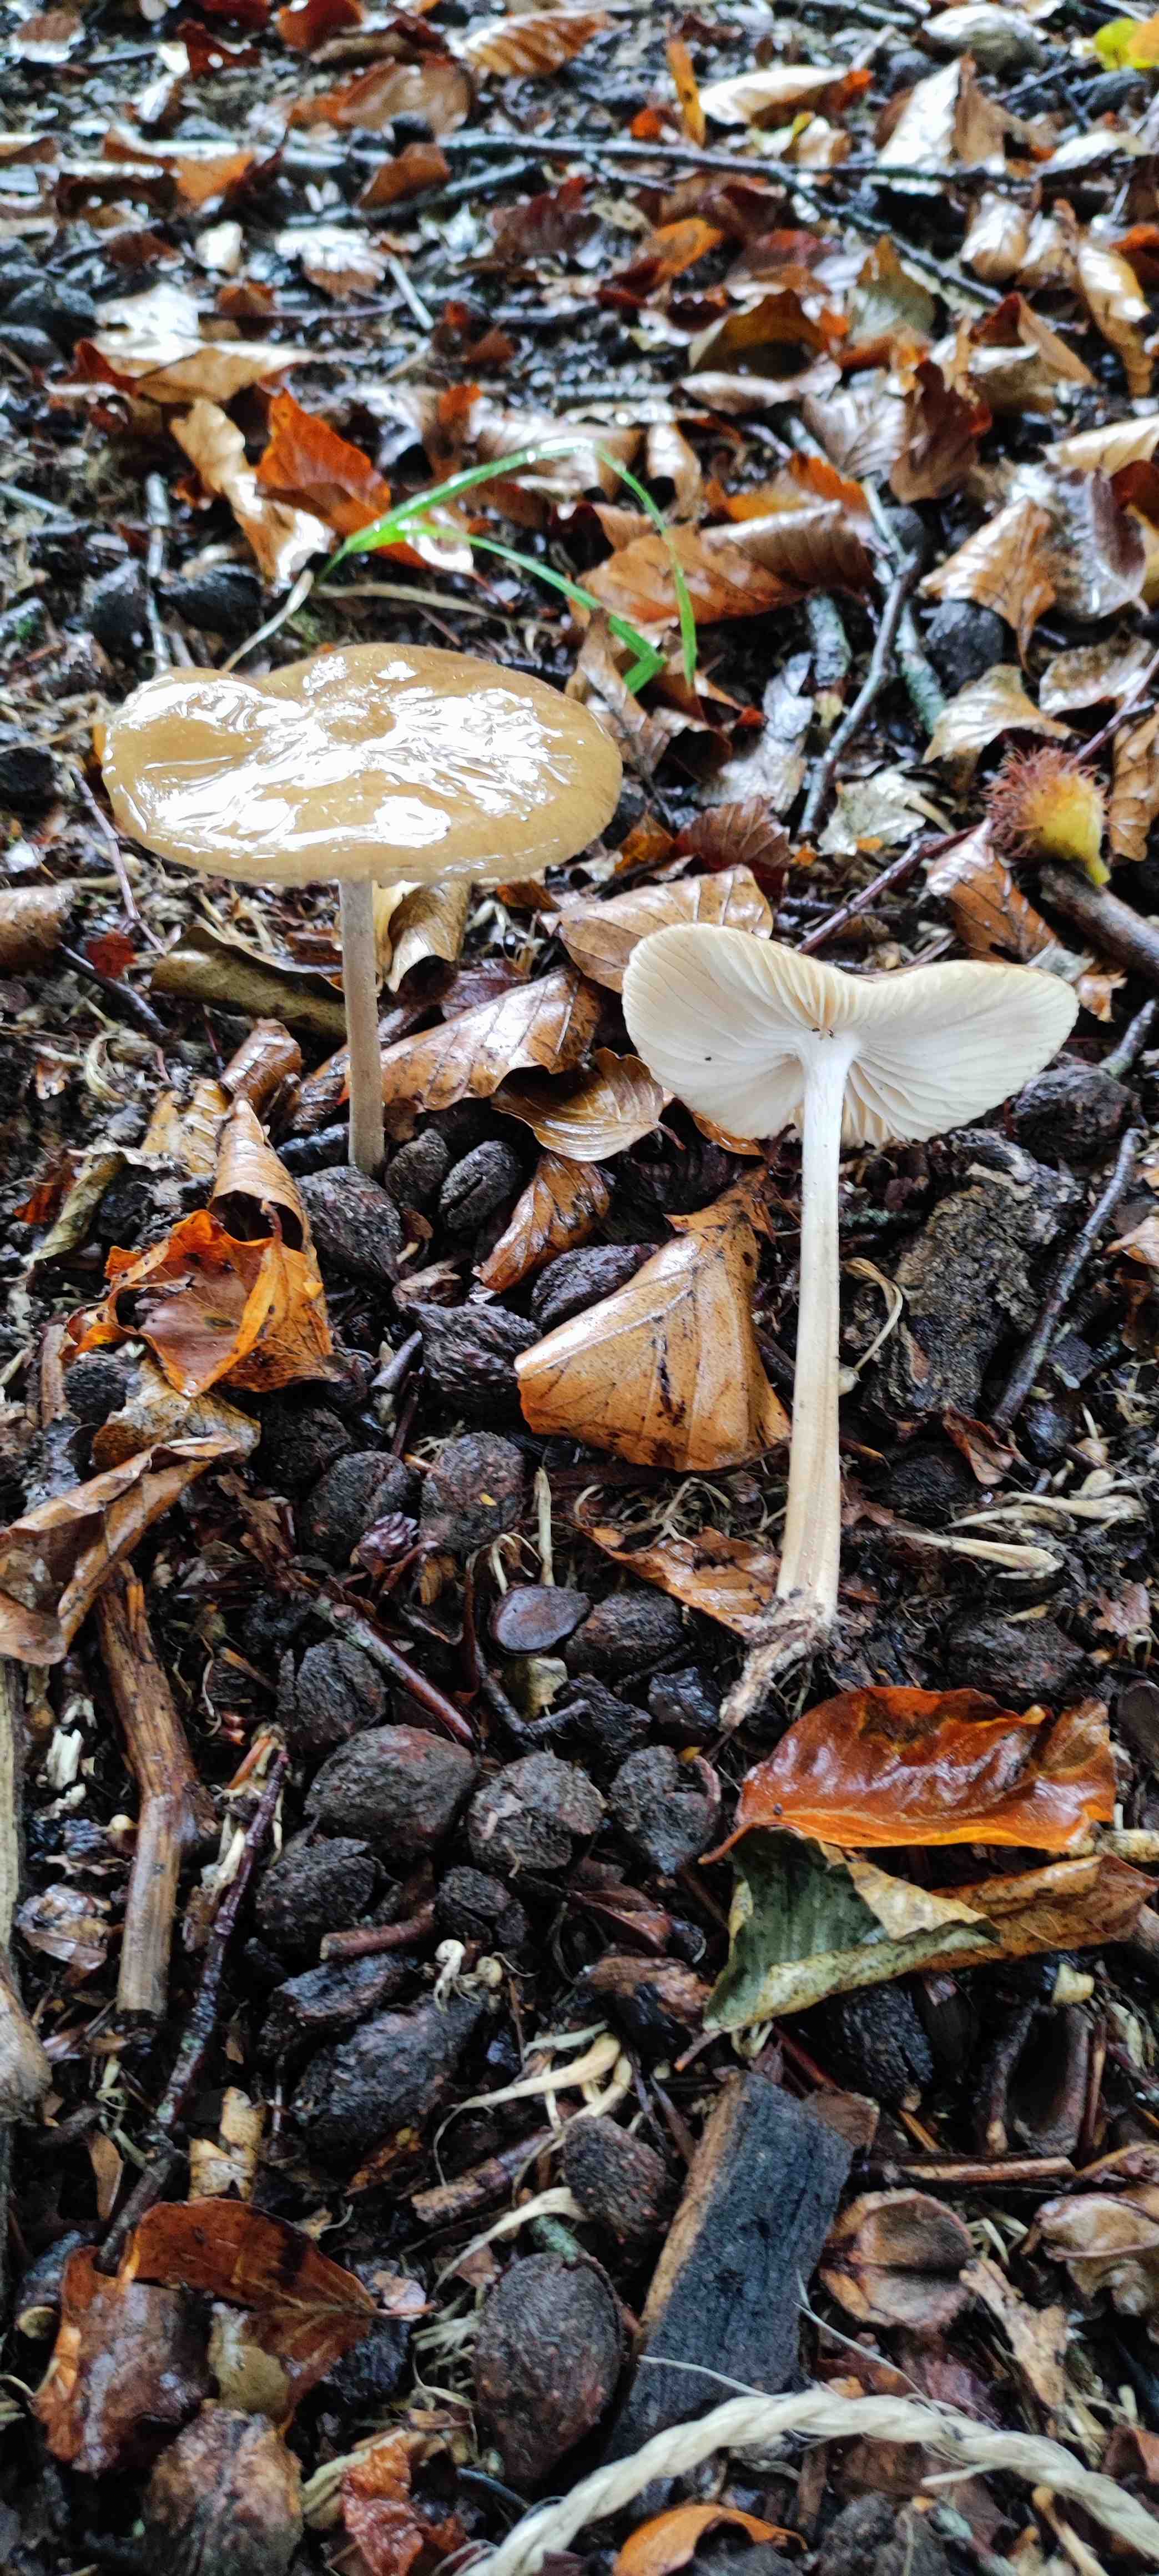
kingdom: Fungi
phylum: Basidiomycota
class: Agaricomycetes
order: Agaricales
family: Physalacriaceae
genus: Hymenopellis
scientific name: Hymenopellis radicata
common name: almindelig pælerodshat
